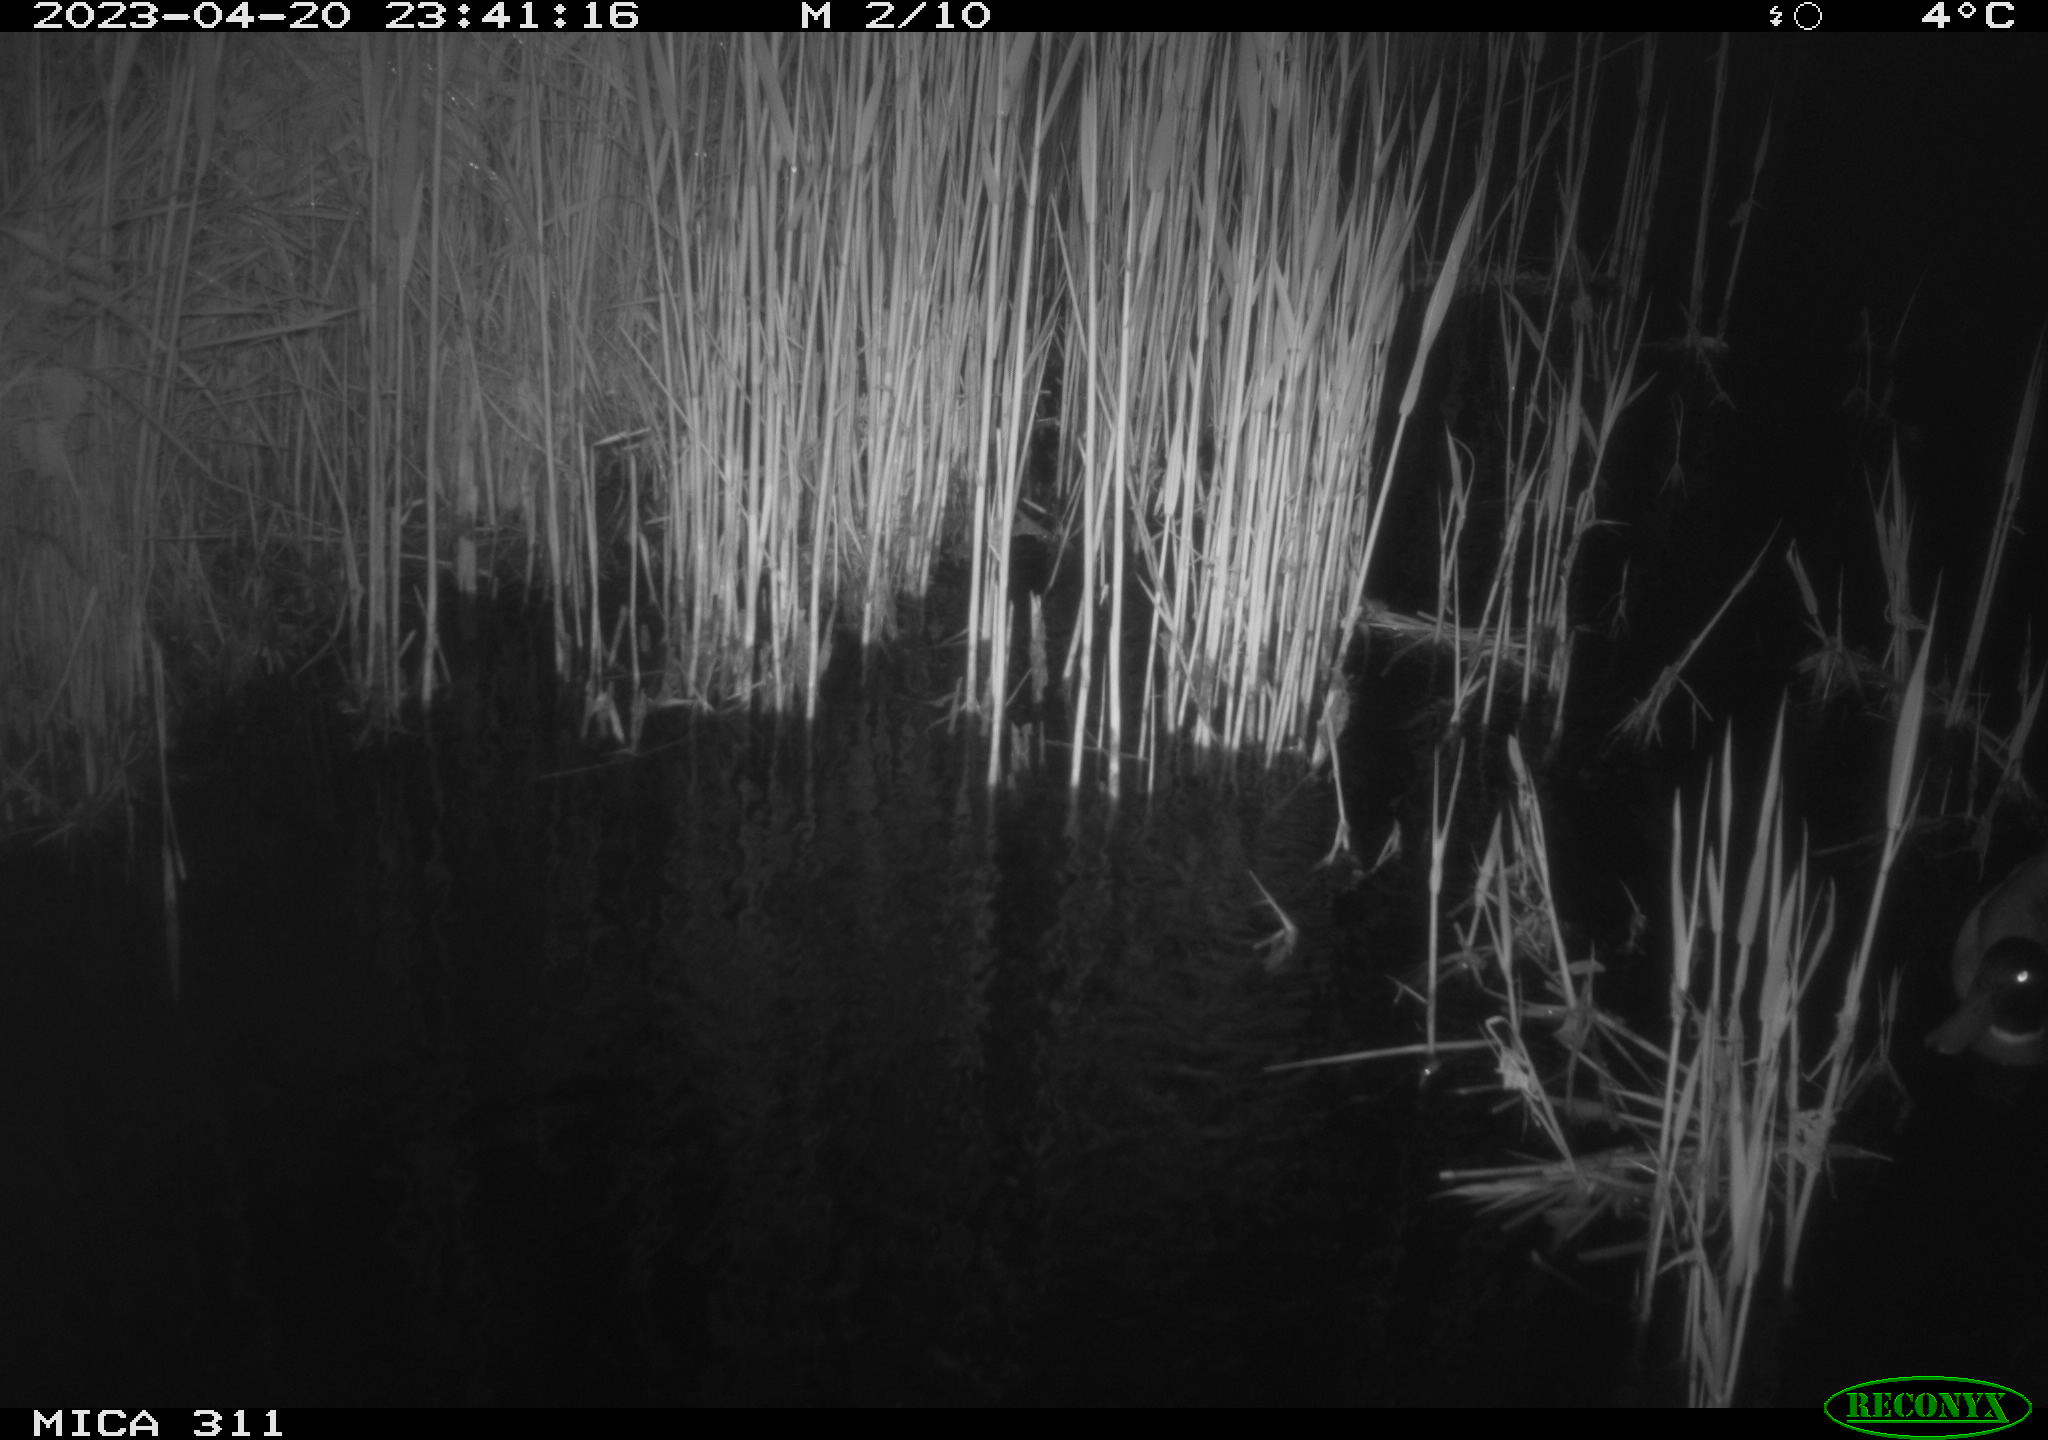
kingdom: Animalia
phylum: Chordata
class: Aves
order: Anseriformes
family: Anatidae
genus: Anas
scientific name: Anas
